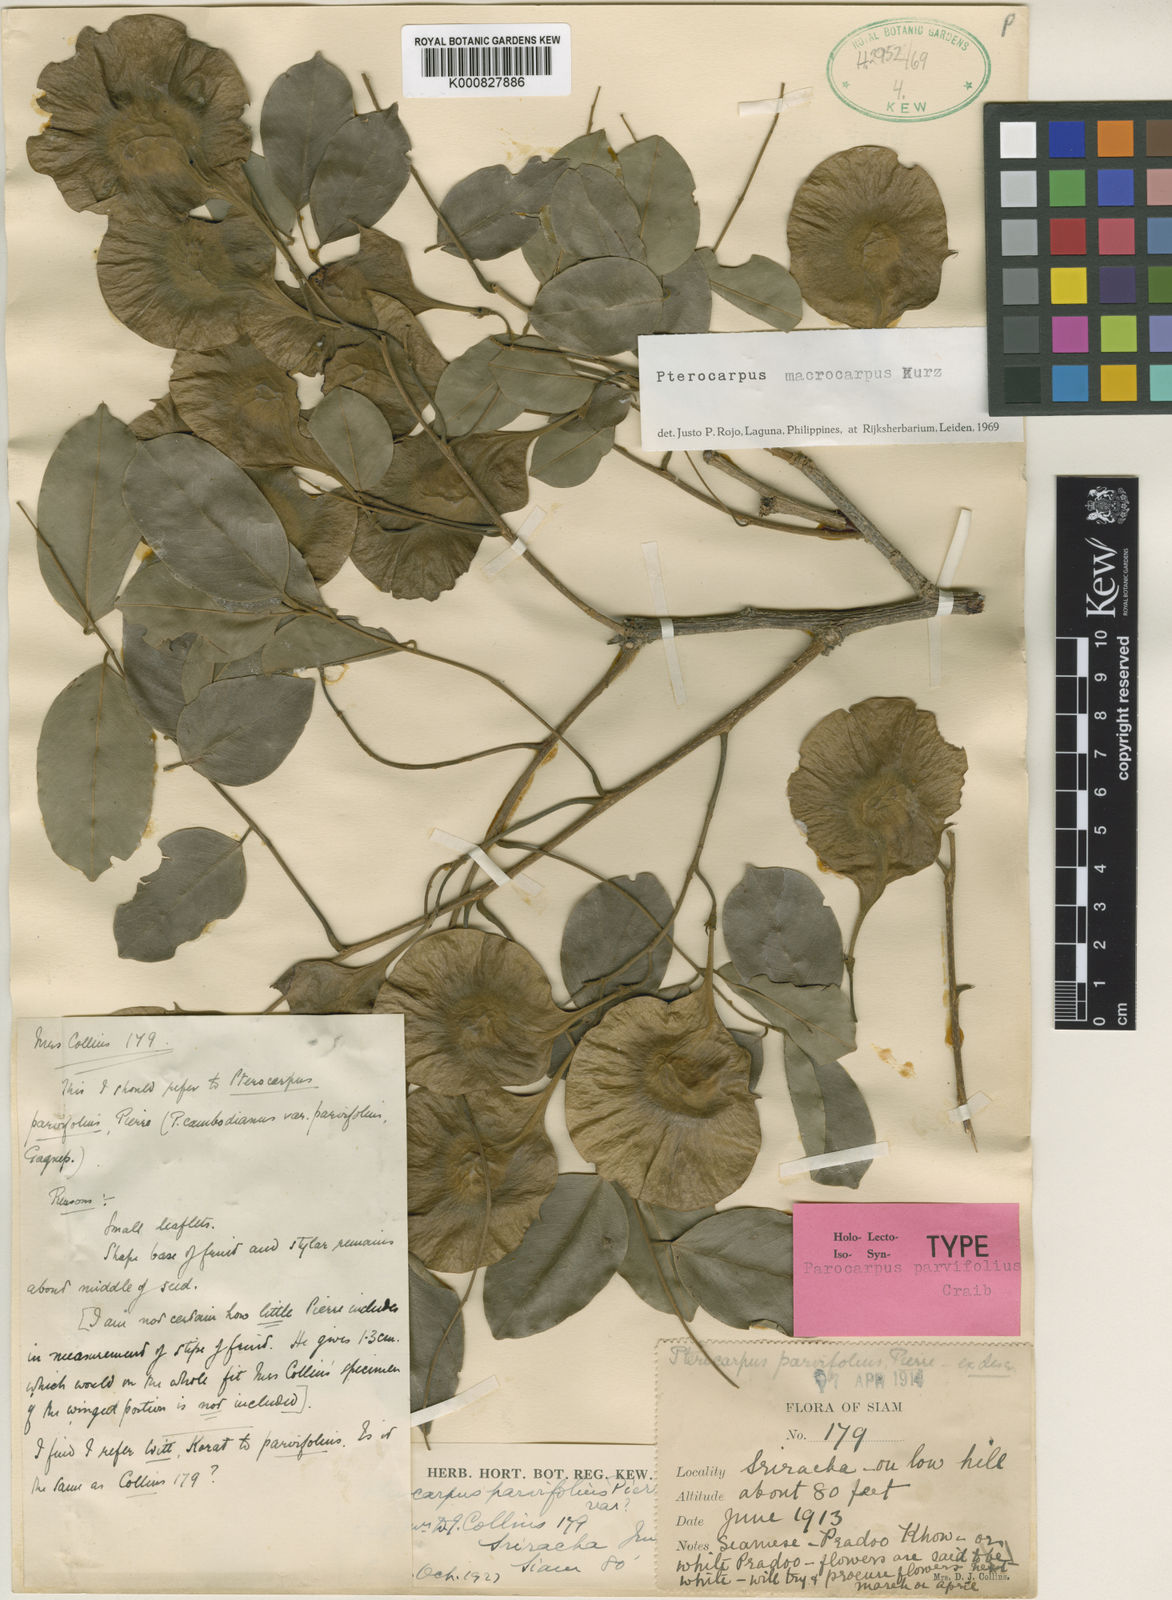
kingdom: Plantae
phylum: Tracheophyta
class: Magnoliopsida
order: Fabales
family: Fabaceae
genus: Pterocarpus
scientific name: Pterocarpus macrocarpus
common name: Burma padauk
